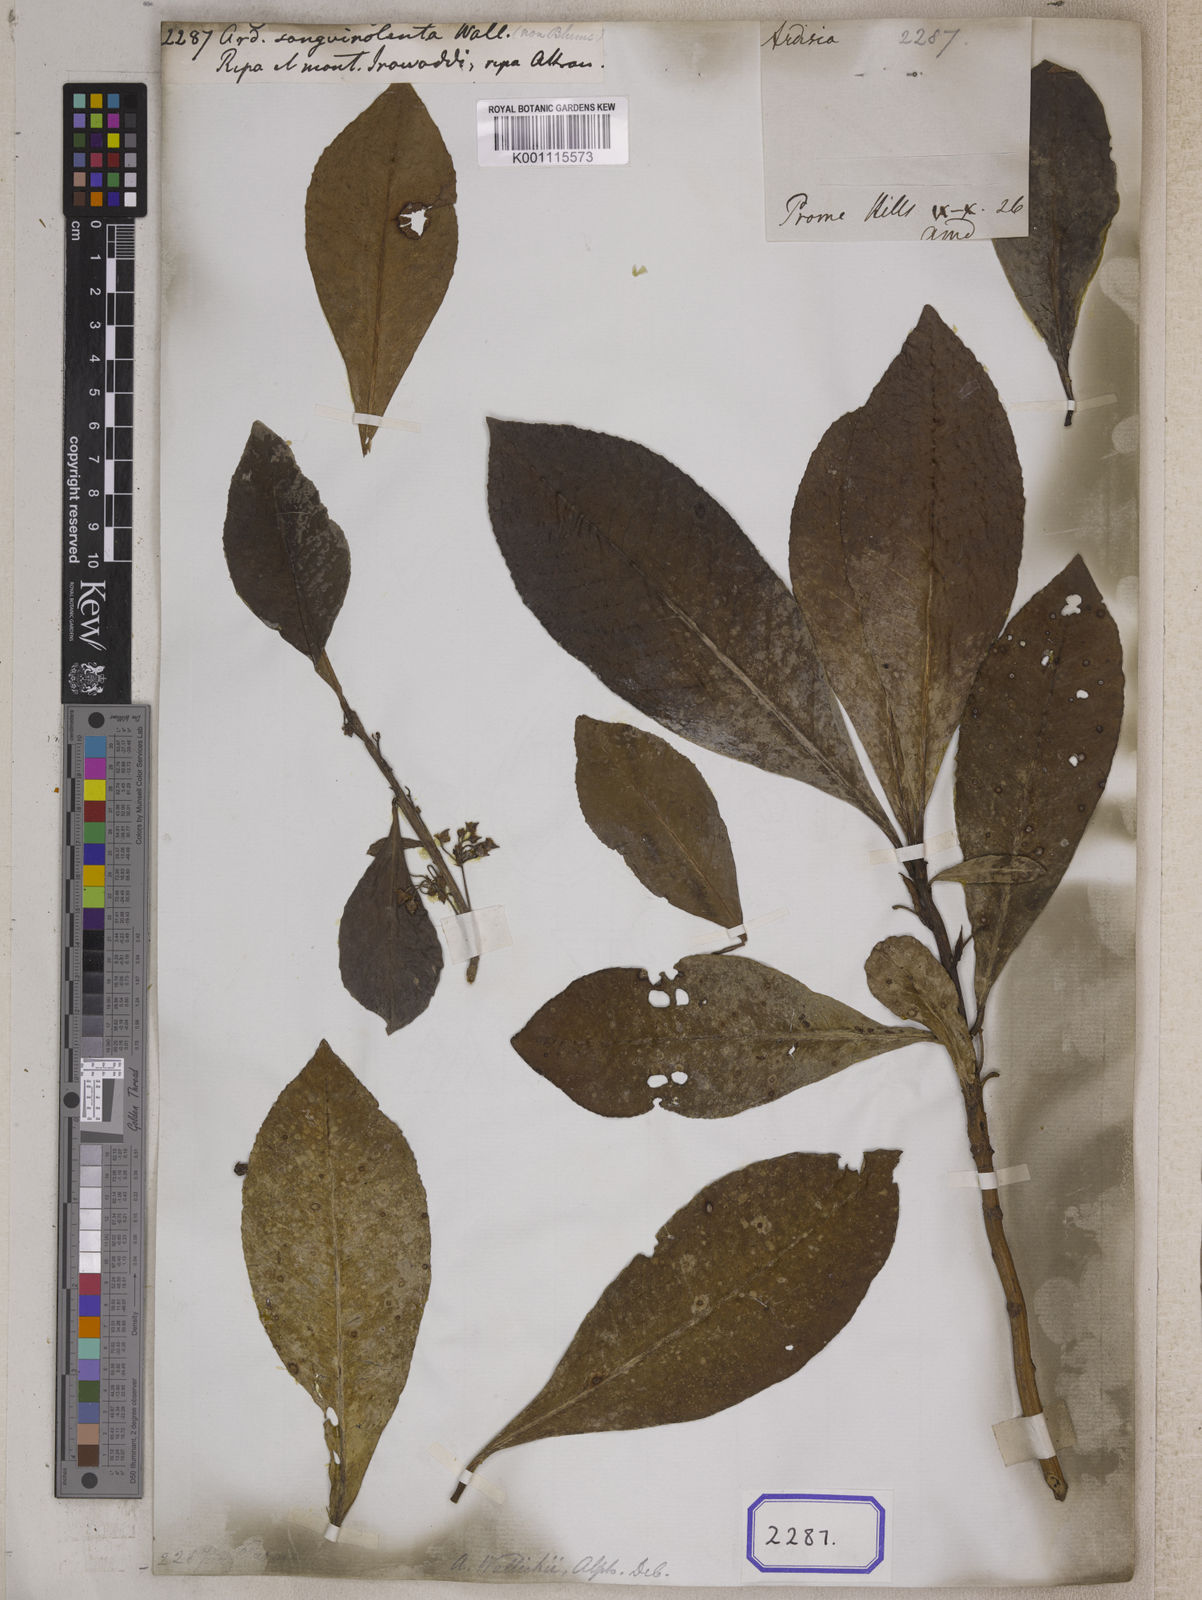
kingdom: Plantae
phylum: Tracheophyta
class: Magnoliopsida
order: Ericales
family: Primulaceae
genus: Ardisia
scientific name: Ardisia
